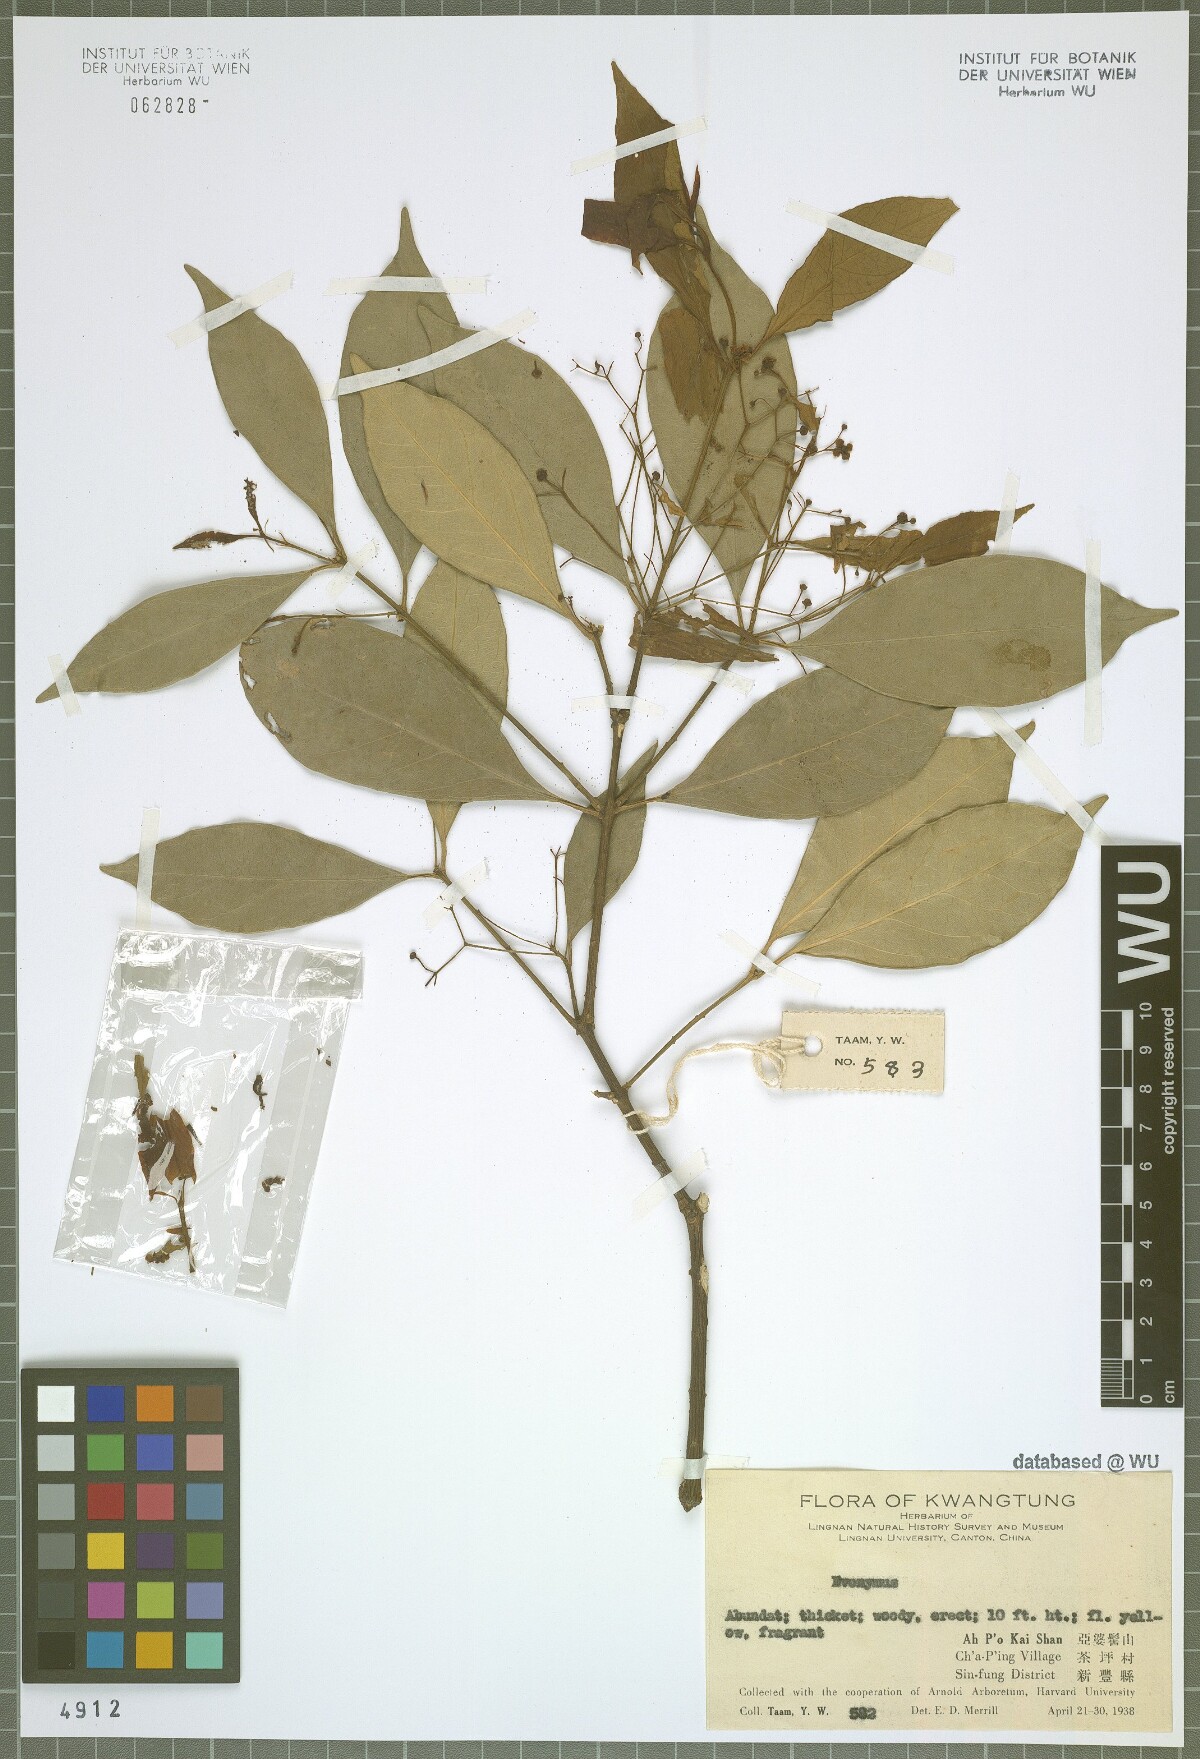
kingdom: Plantae
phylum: Tracheophyta
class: Magnoliopsida
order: Celastrales
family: Celastraceae
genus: Euonymus
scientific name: Euonymus
